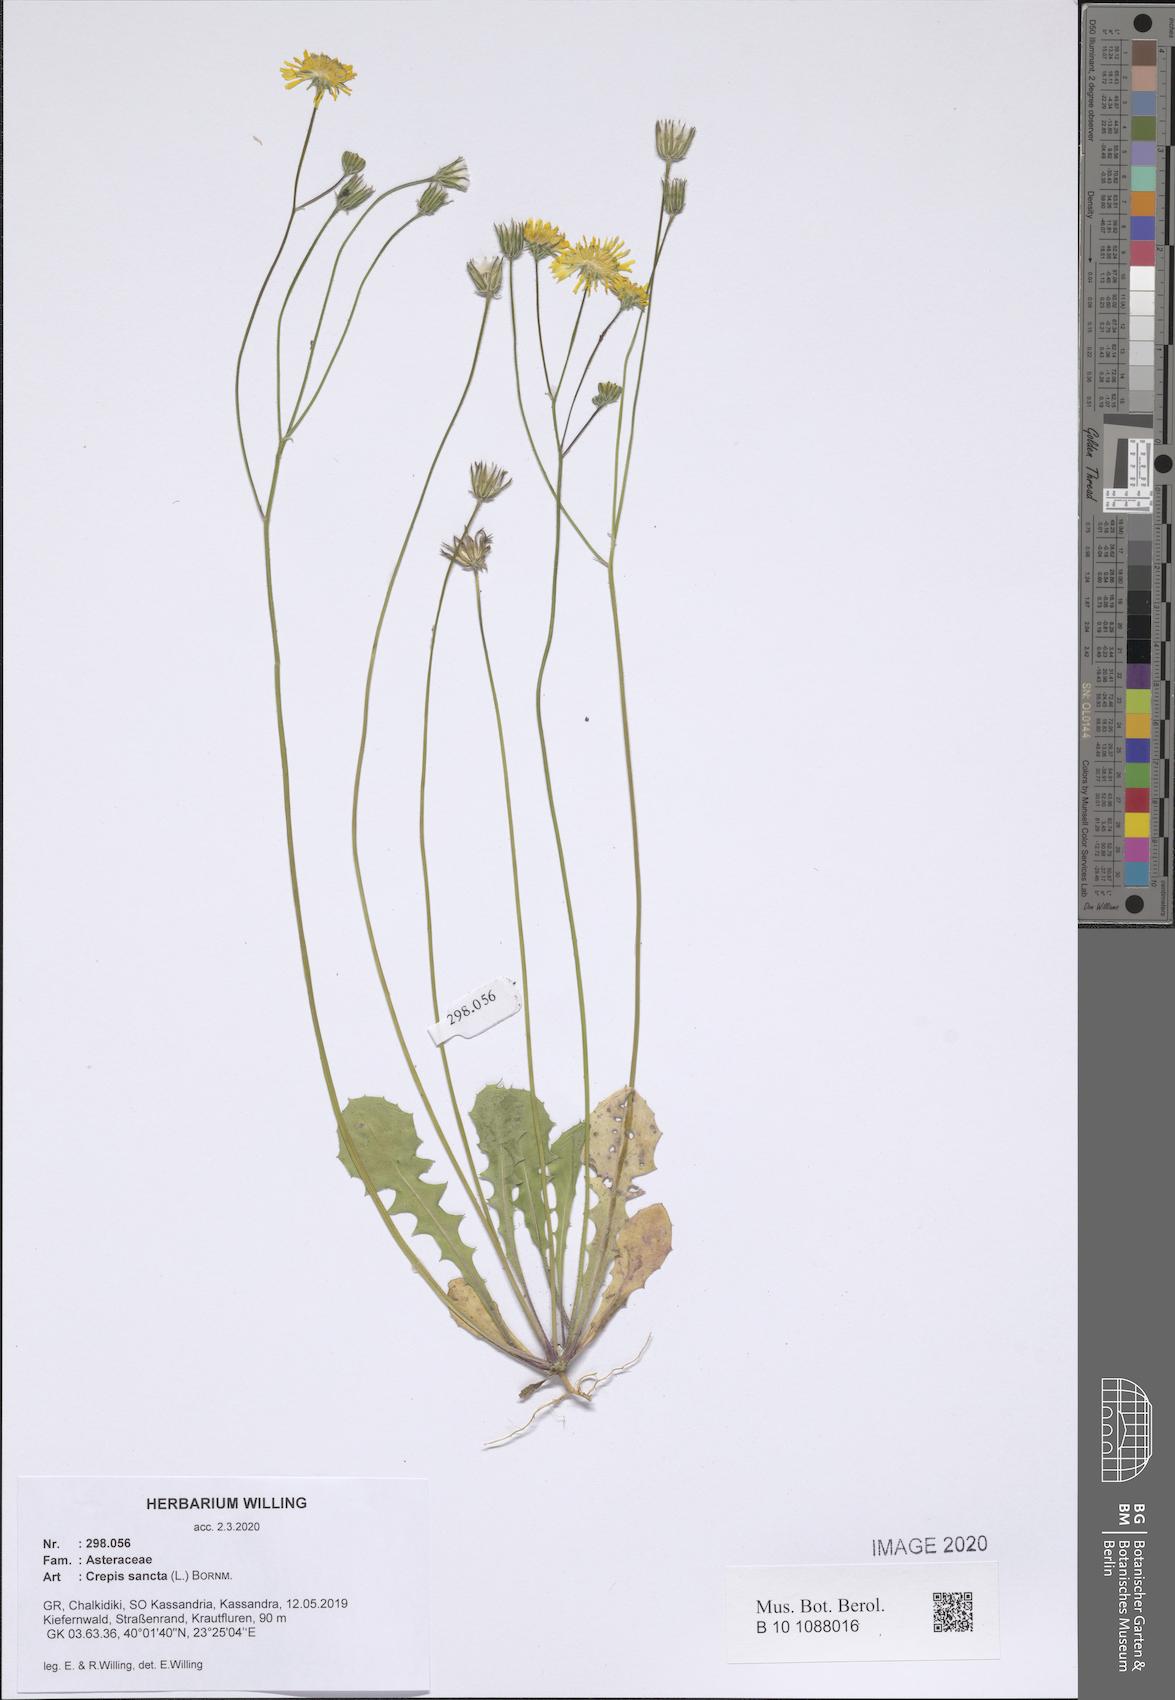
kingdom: Plantae
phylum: Tracheophyta
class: Magnoliopsida
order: Asterales
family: Asteraceae
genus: Crepis
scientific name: Crepis sancta
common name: Hawk's-beard
